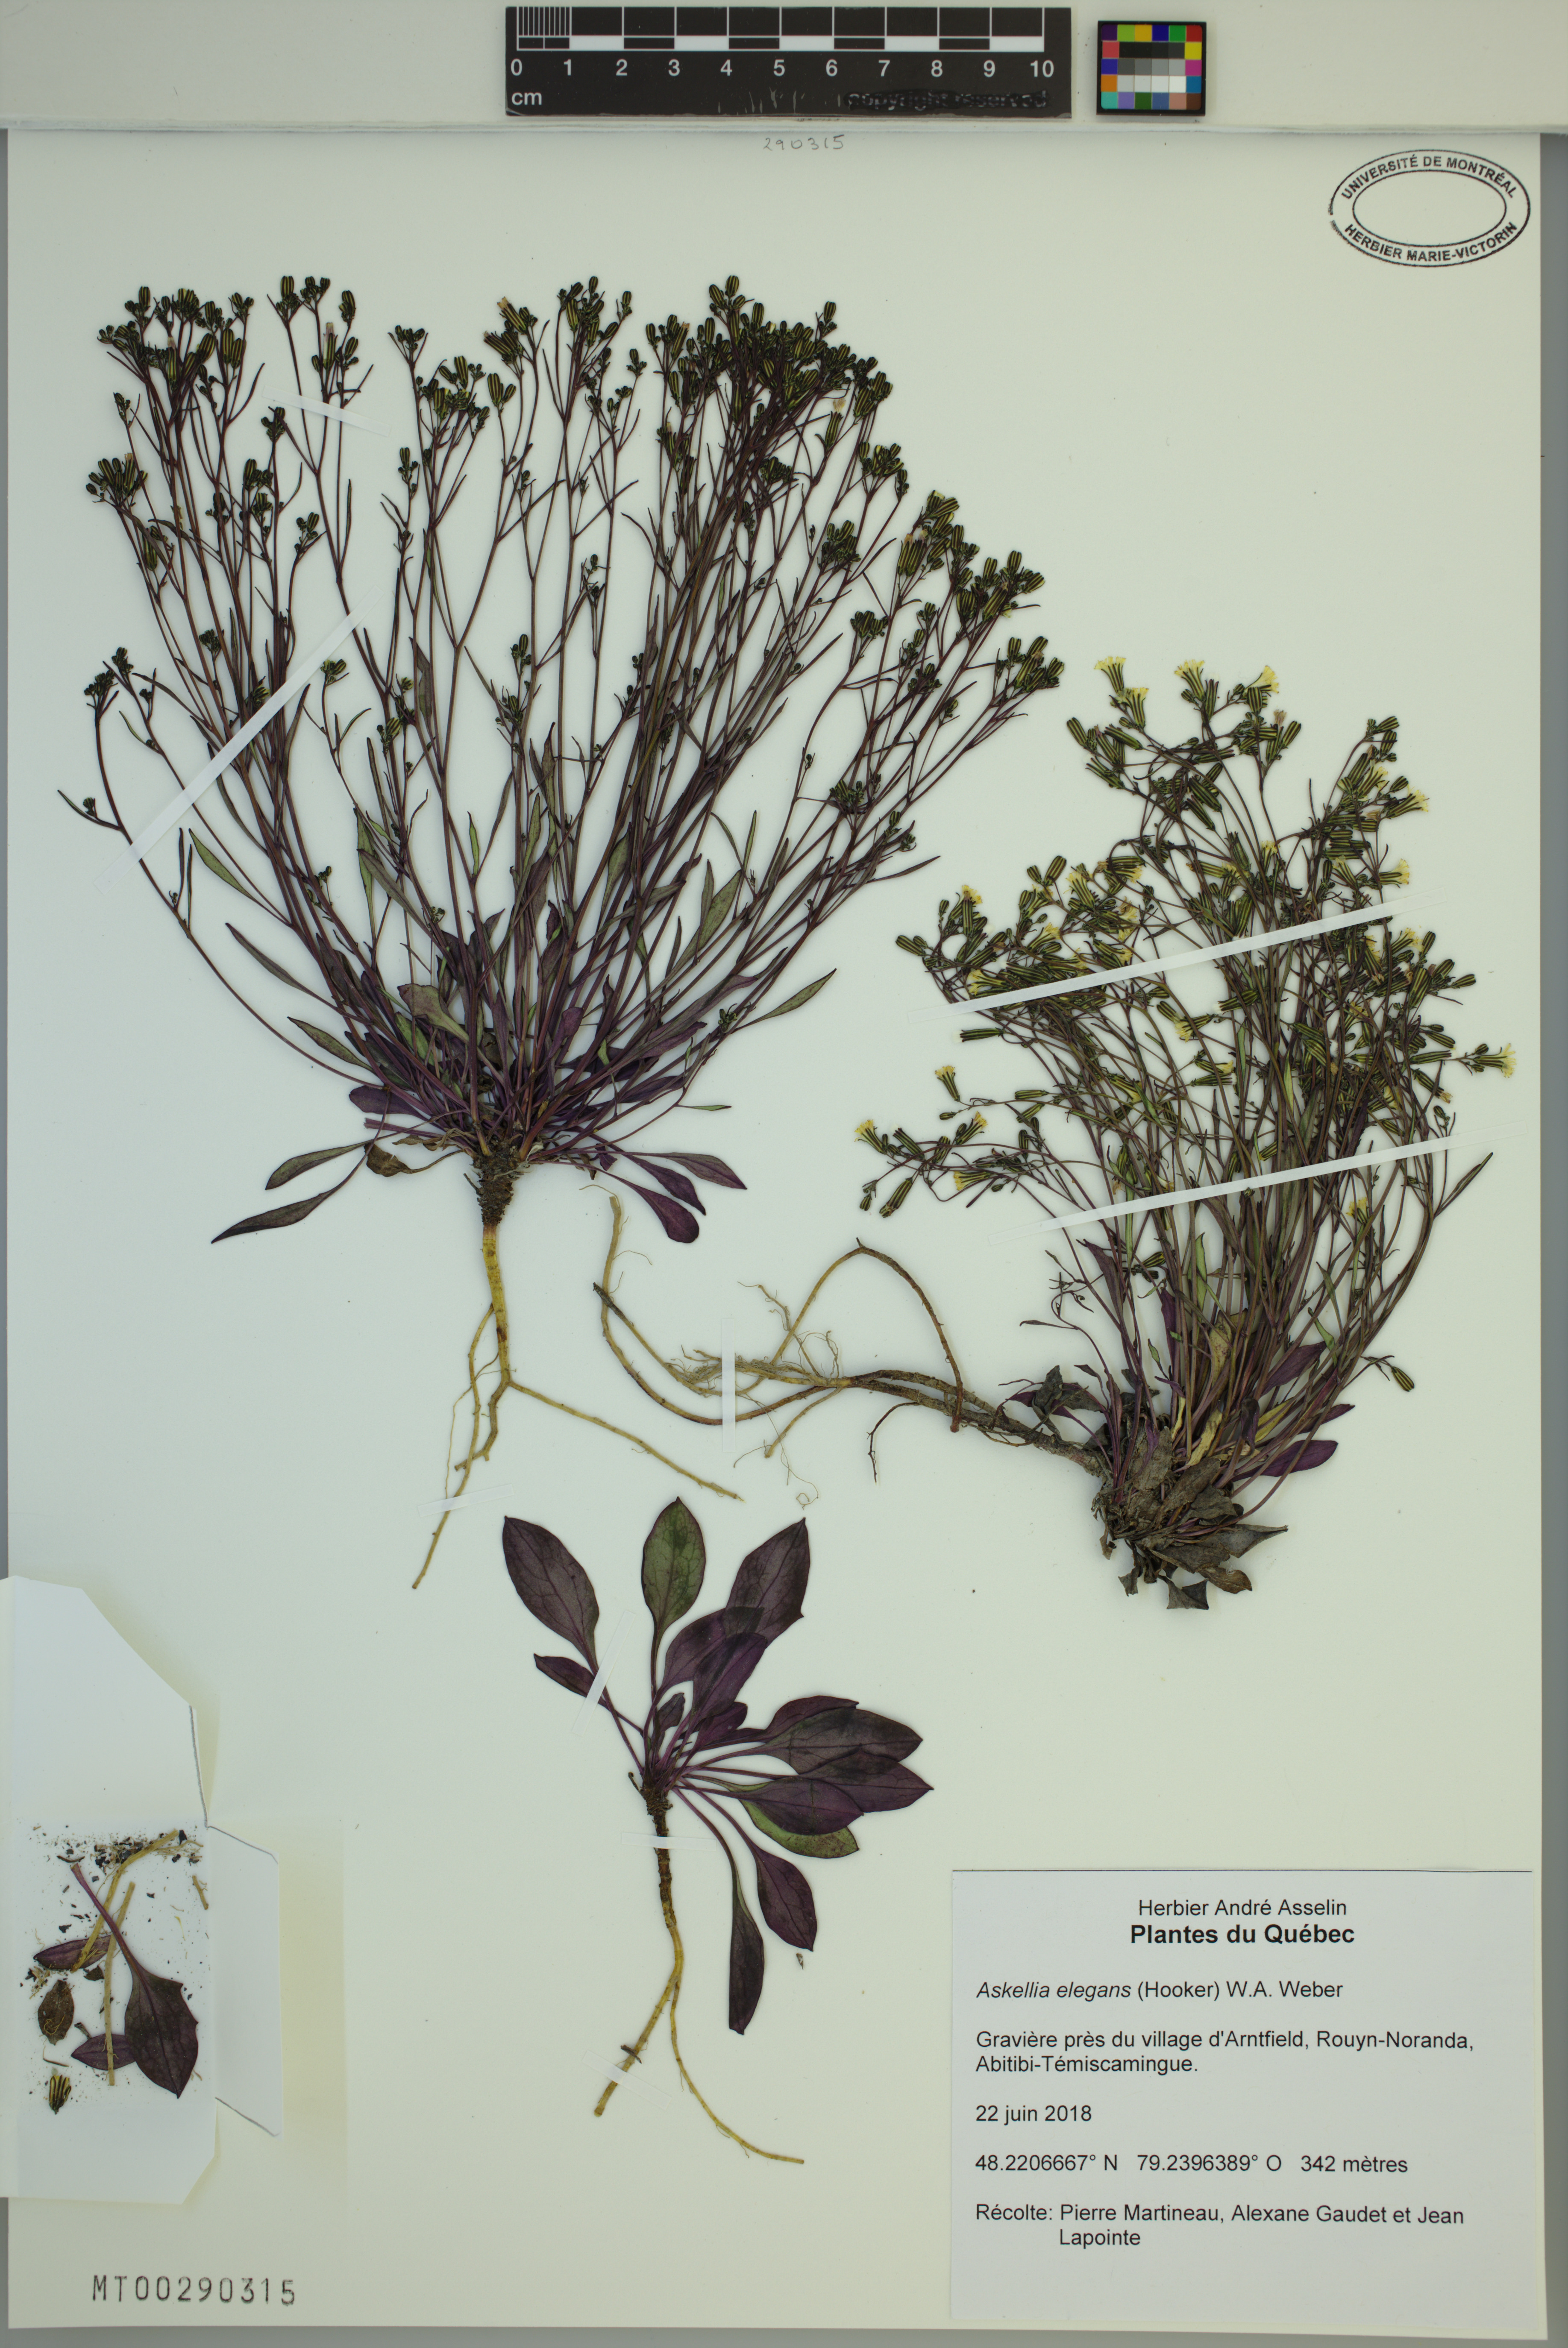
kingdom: Plantae
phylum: Tracheophyta
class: Magnoliopsida
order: Asterales
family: Asteraceae
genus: Askellia
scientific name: Askellia elegans
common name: Elegant hawksbeard
